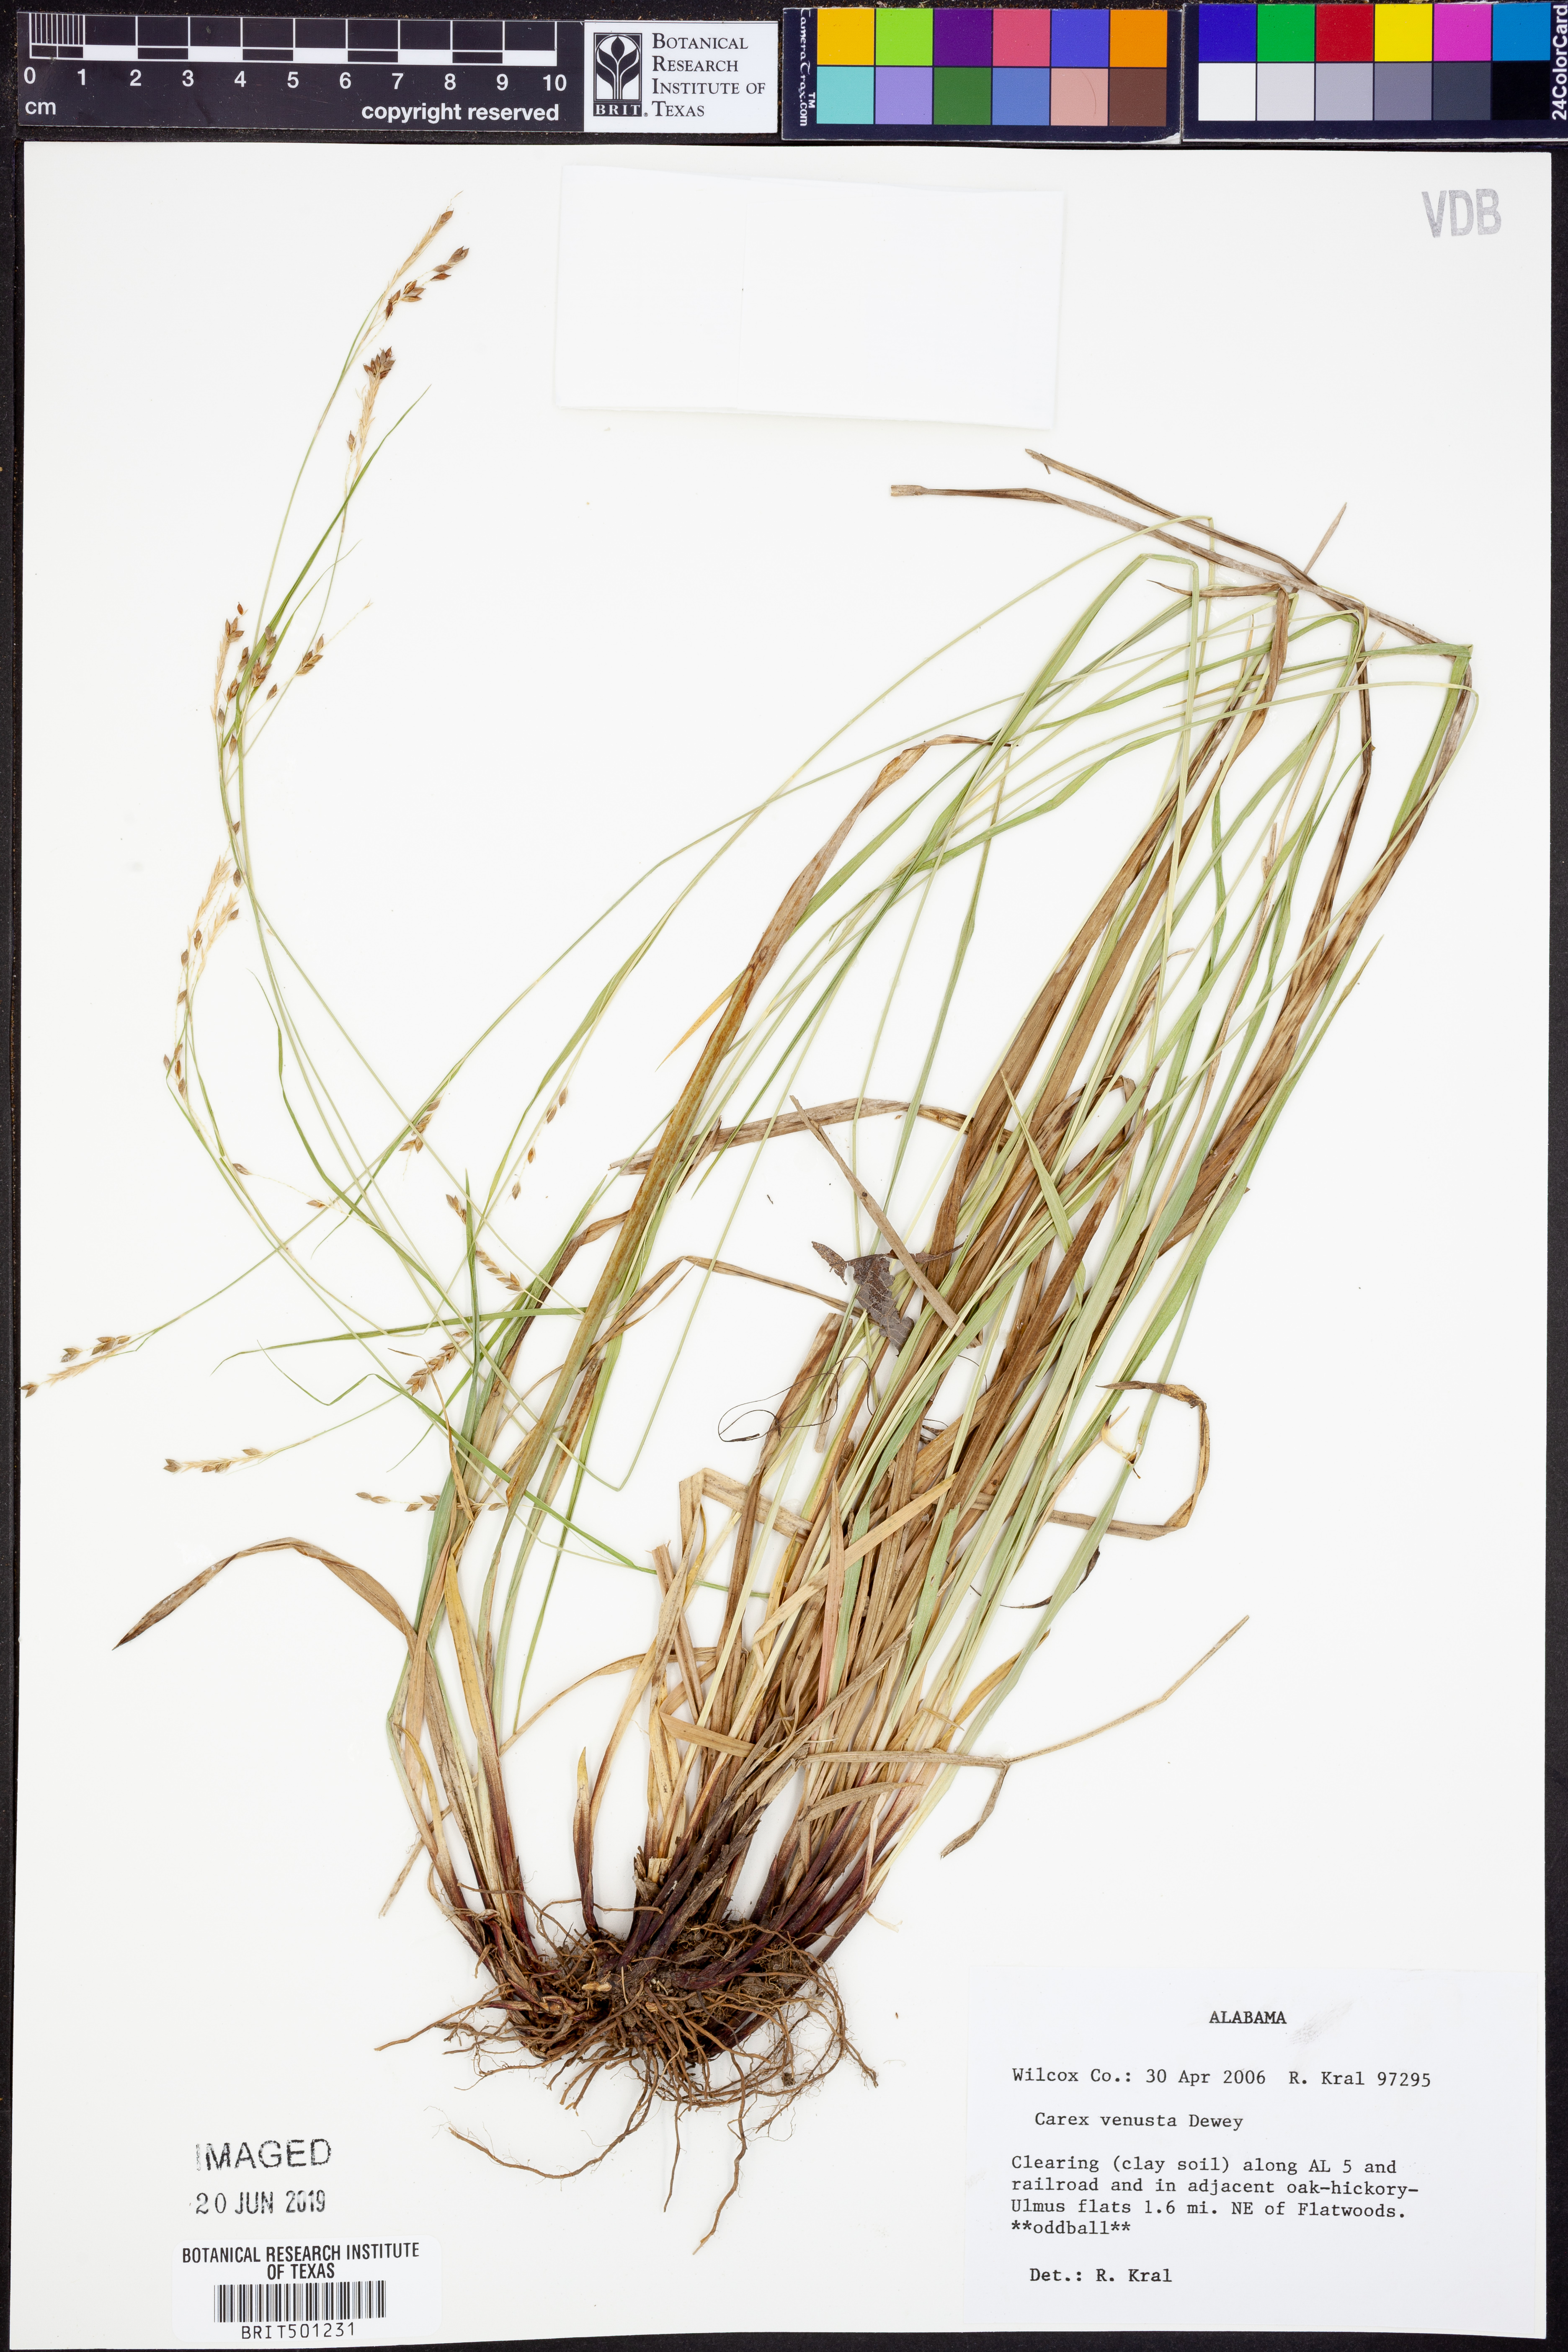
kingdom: Plantae
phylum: Tracheophyta
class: Liliopsida
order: Poales
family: Cyperaceae
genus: Carex
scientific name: Carex venusta
